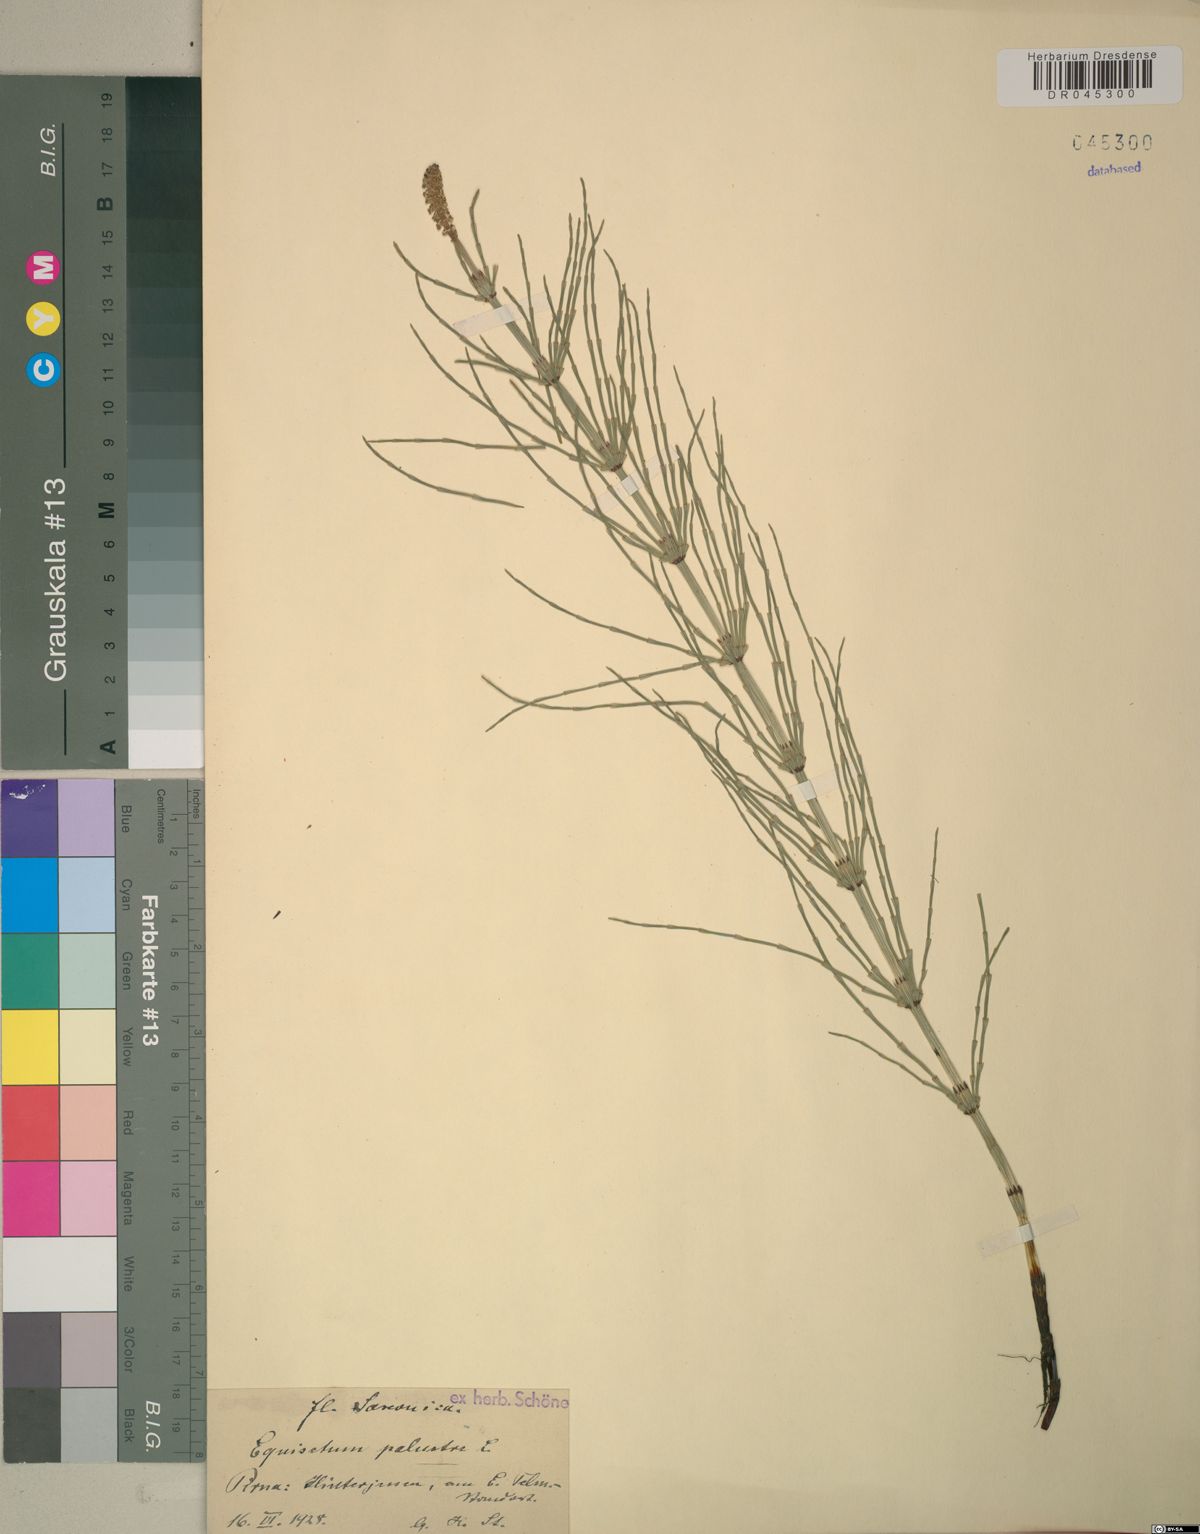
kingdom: Plantae
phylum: Tracheophyta
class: Polypodiopsida
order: Equisetales
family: Equisetaceae
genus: Equisetum
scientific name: Equisetum palustre
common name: Marsh horsetail
